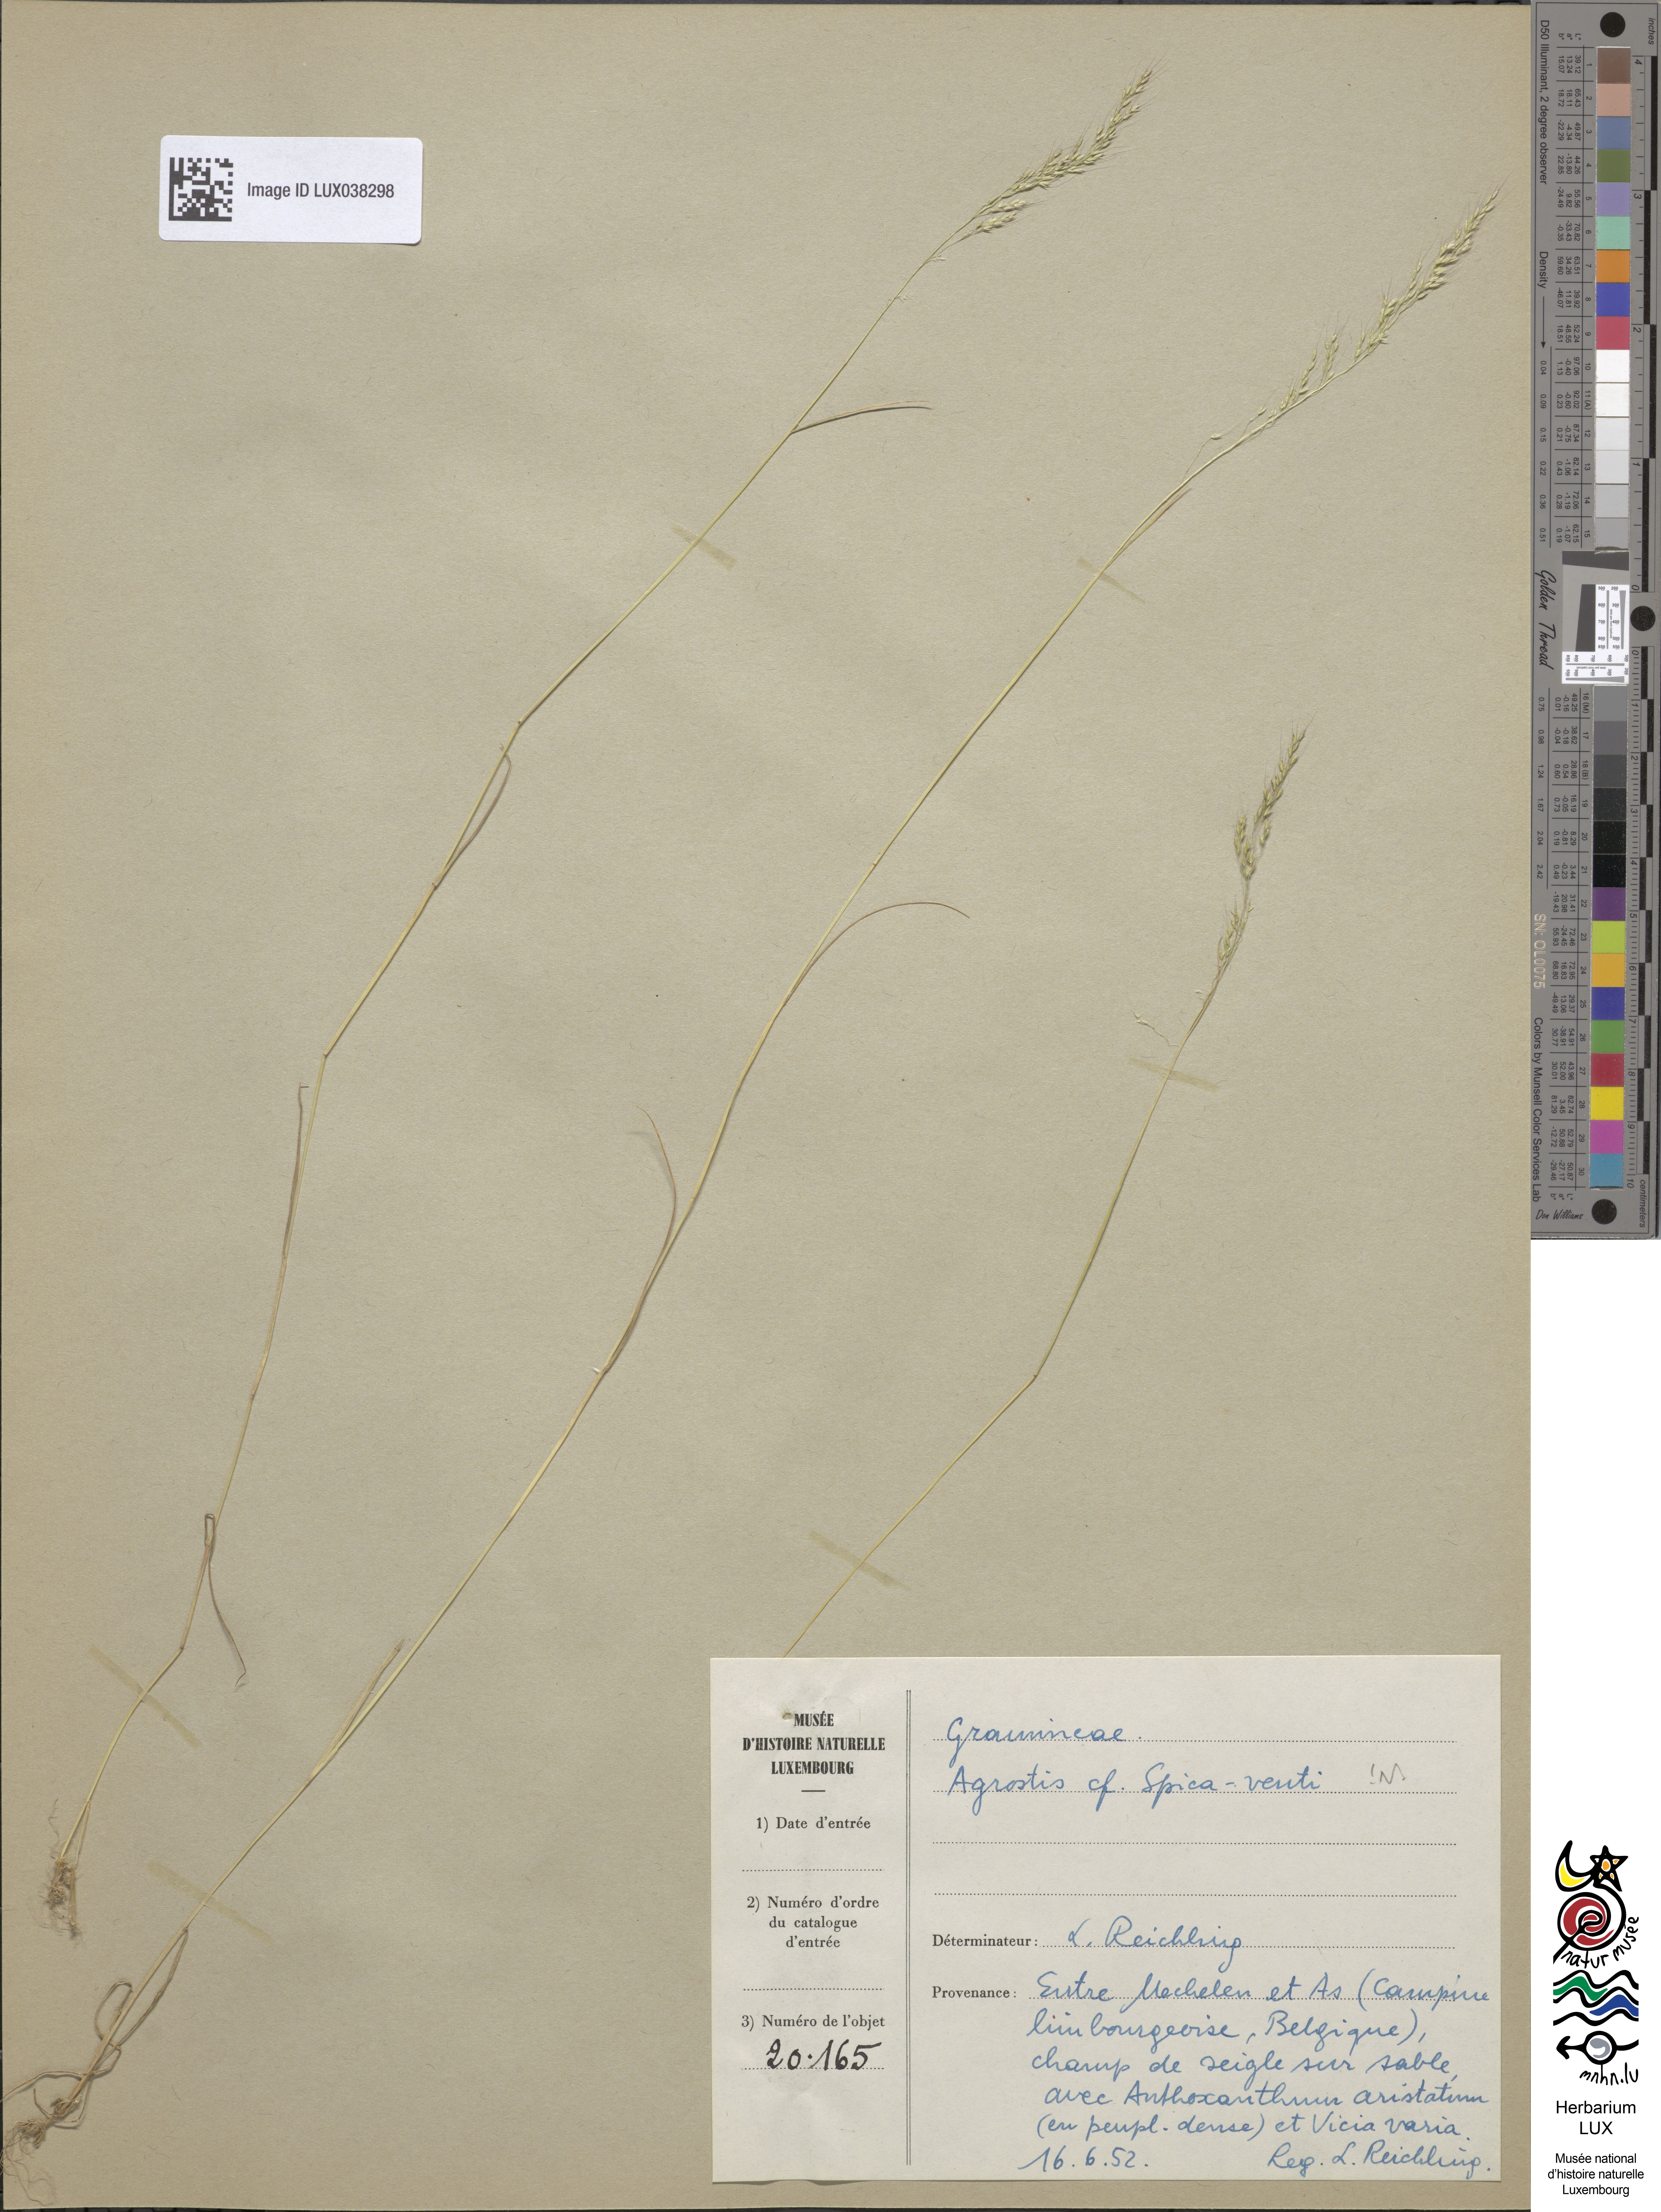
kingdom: Plantae
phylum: Tracheophyta
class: Liliopsida
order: Poales
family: Poaceae
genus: Apera
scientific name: Apera spica-venti
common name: Loose silky-bent
